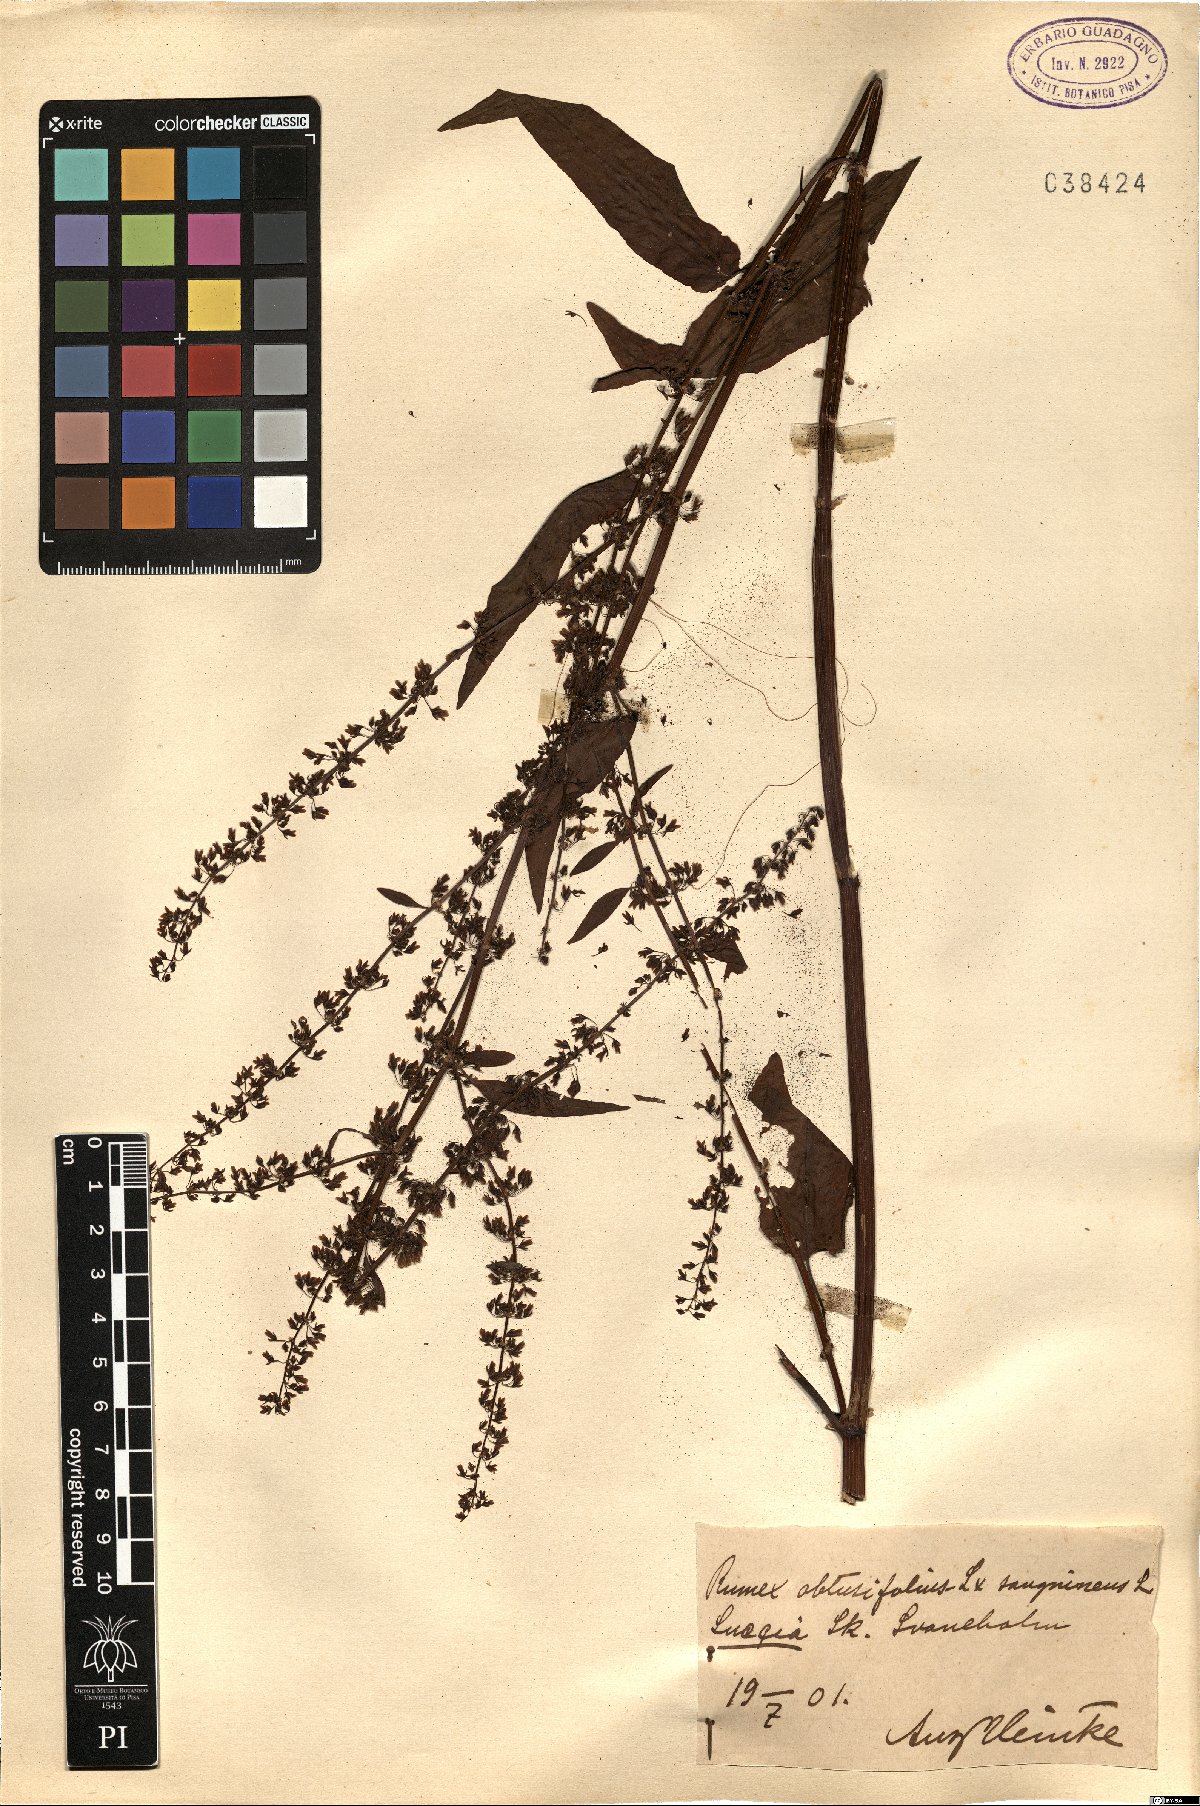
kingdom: Plantae
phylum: Tracheophyta
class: Magnoliopsida
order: Caryophyllales
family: Polygonaceae
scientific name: Polygonaceae
